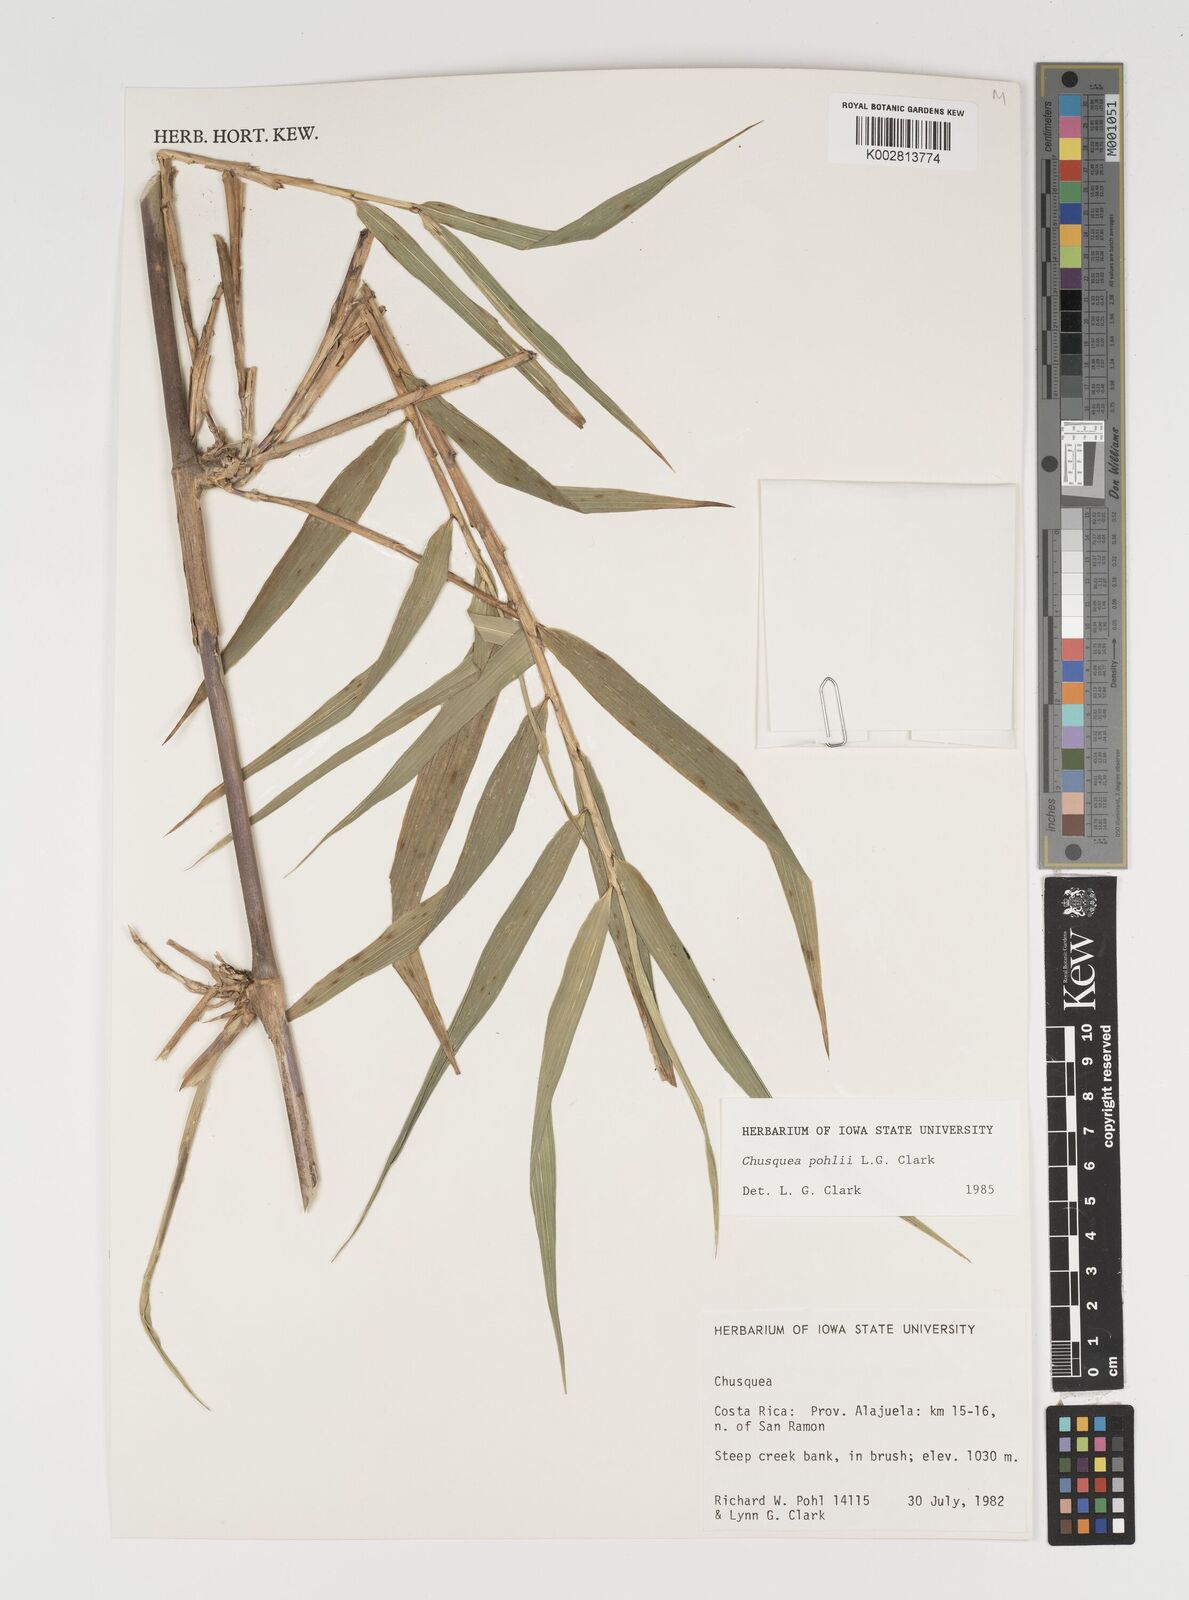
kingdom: Plantae
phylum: Tracheophyta
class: Liliopsida
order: Poales
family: Poaceae
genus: Chusquea
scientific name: Chusquea pohlii
